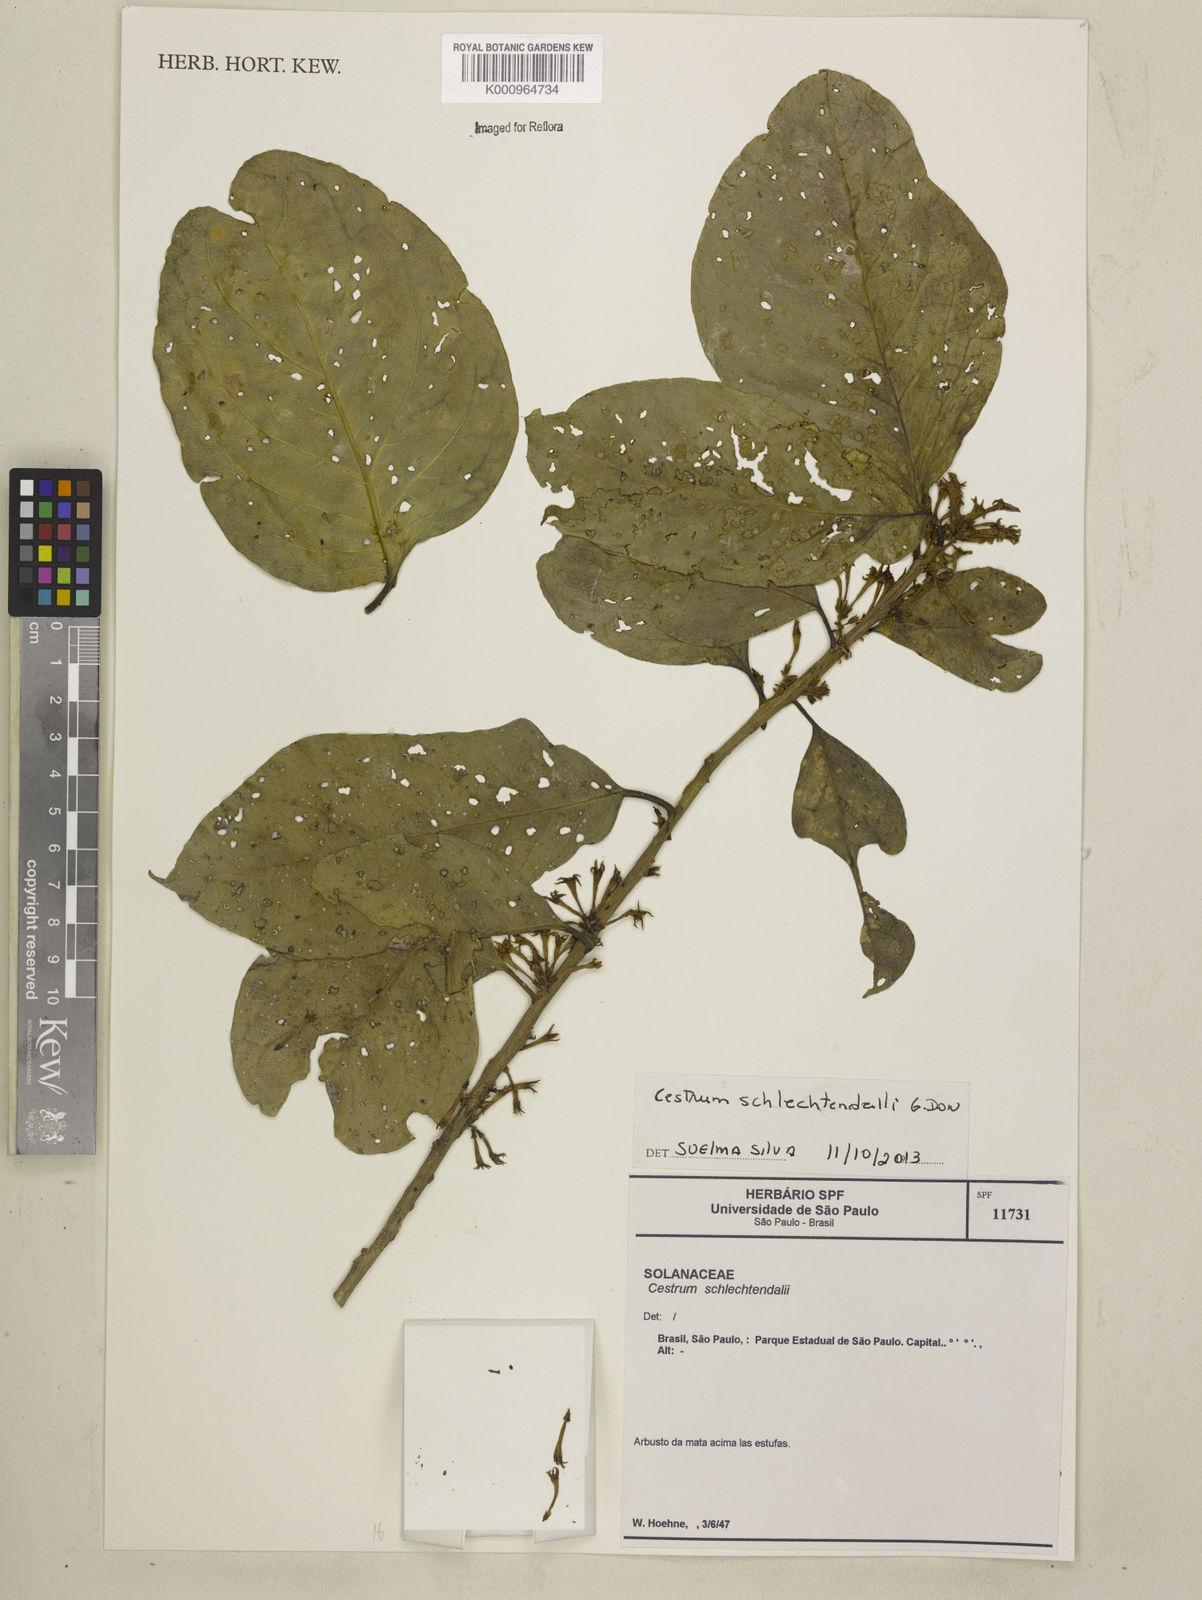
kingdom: Plantae
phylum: Tracheophyta
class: Magnoliopsida
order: Solanales
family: Solanaceae
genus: Cestrum
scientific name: Cestrum schlechtendalii
